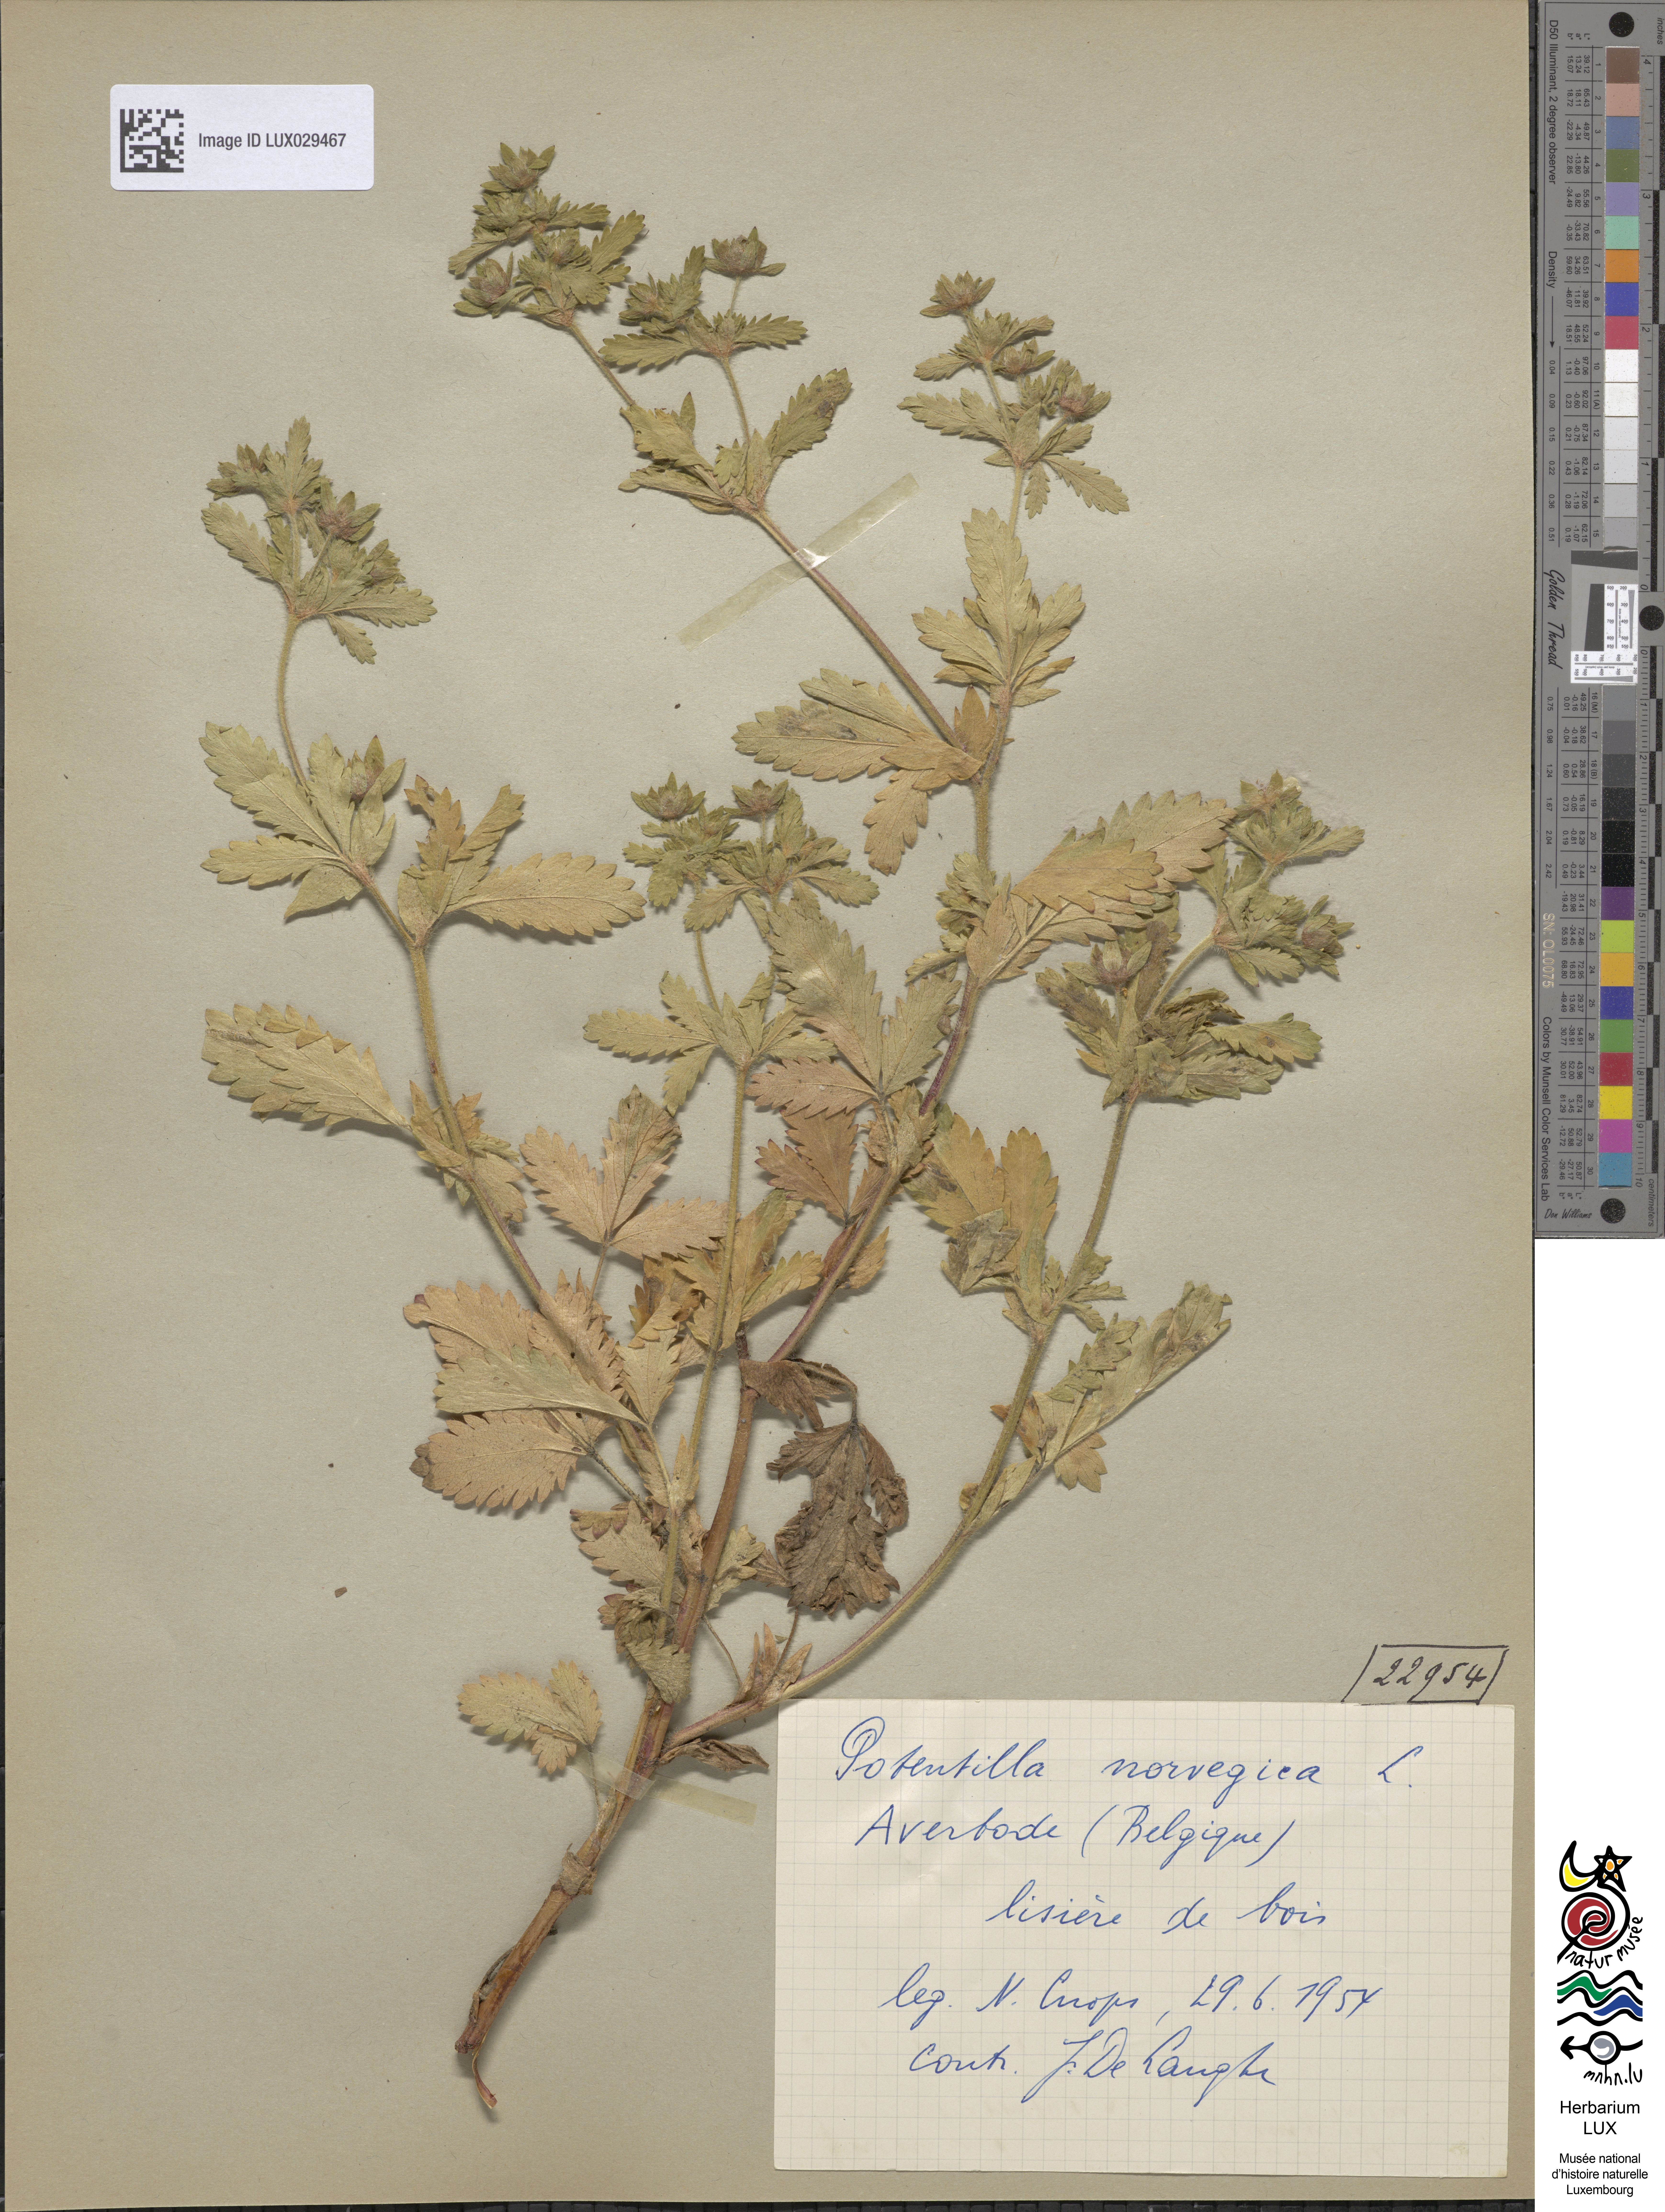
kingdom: Plantae
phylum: Tracheophyta
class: Magnoliopsida
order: Rosales
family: Rosaceae
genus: Potentilla
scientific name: Potentilla norvegica
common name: Ternate-leaved cinquefoil
